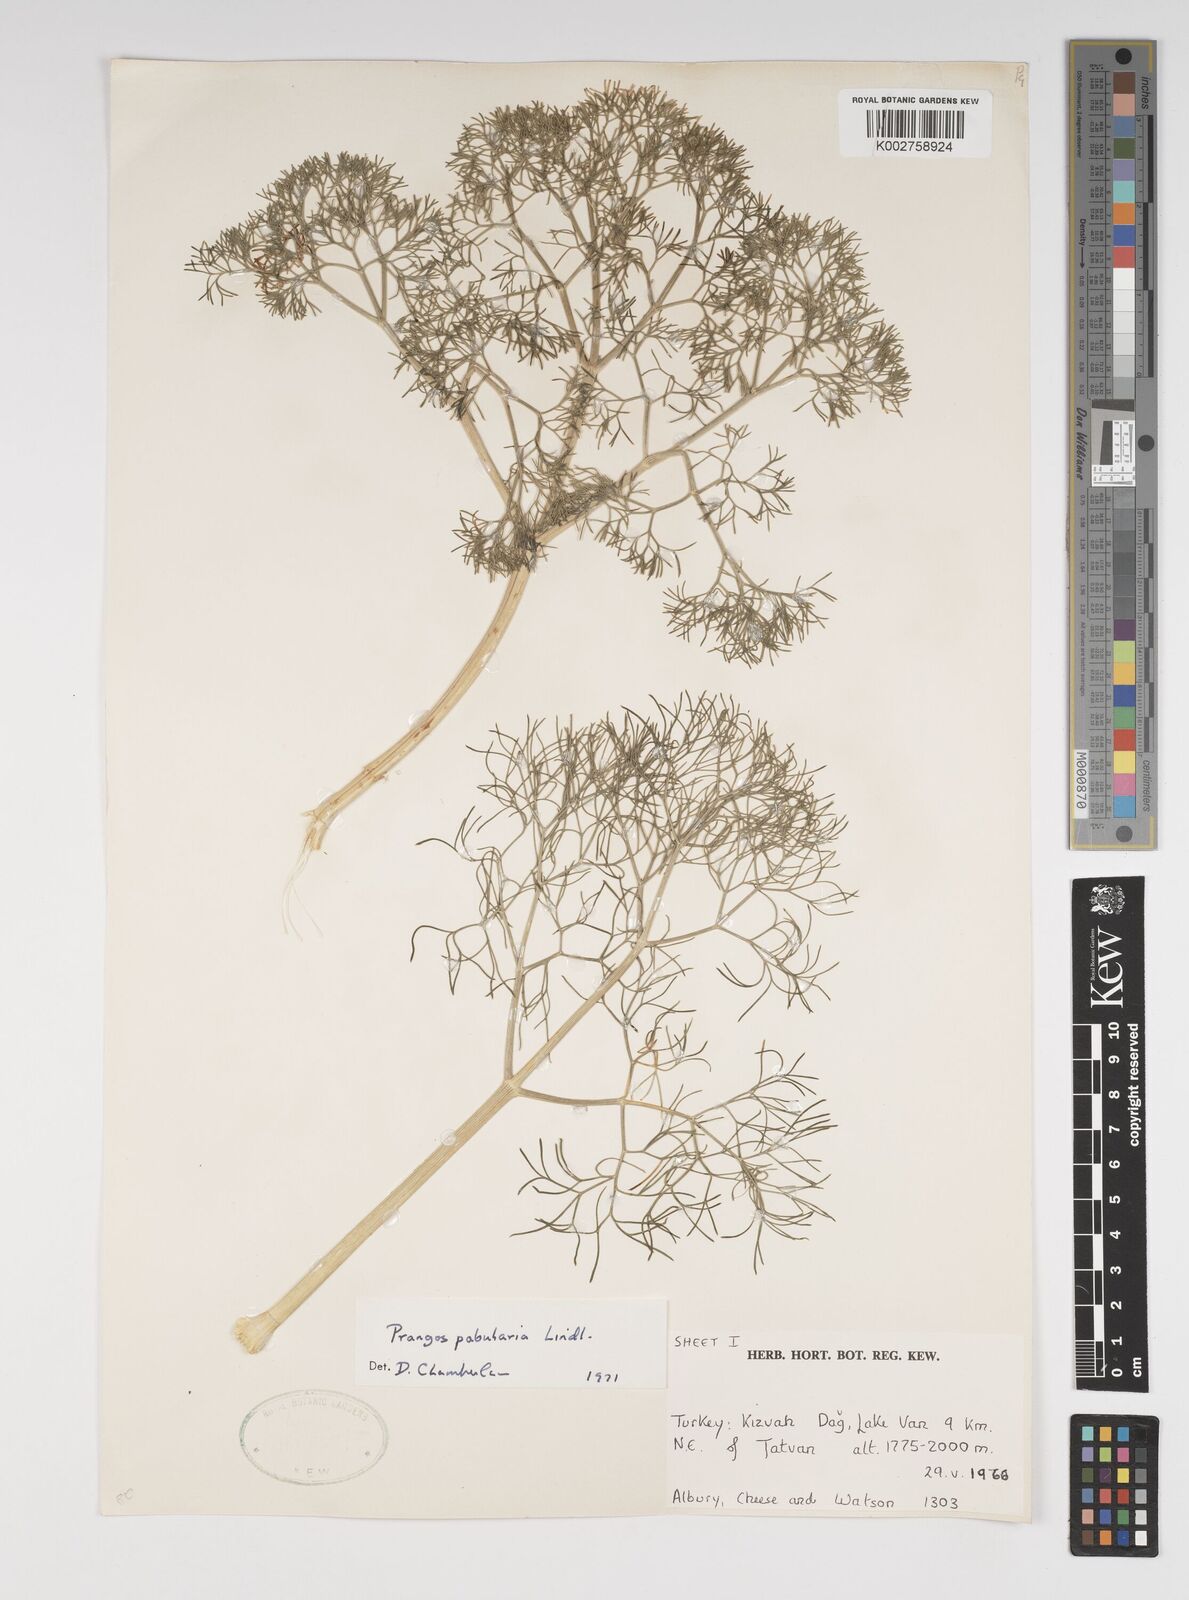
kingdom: Plantae
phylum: Tracheophyta
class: Magnoliopsida
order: Apiales
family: Apiaceae
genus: Prangos
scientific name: Prangos pabularia
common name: Yugan
